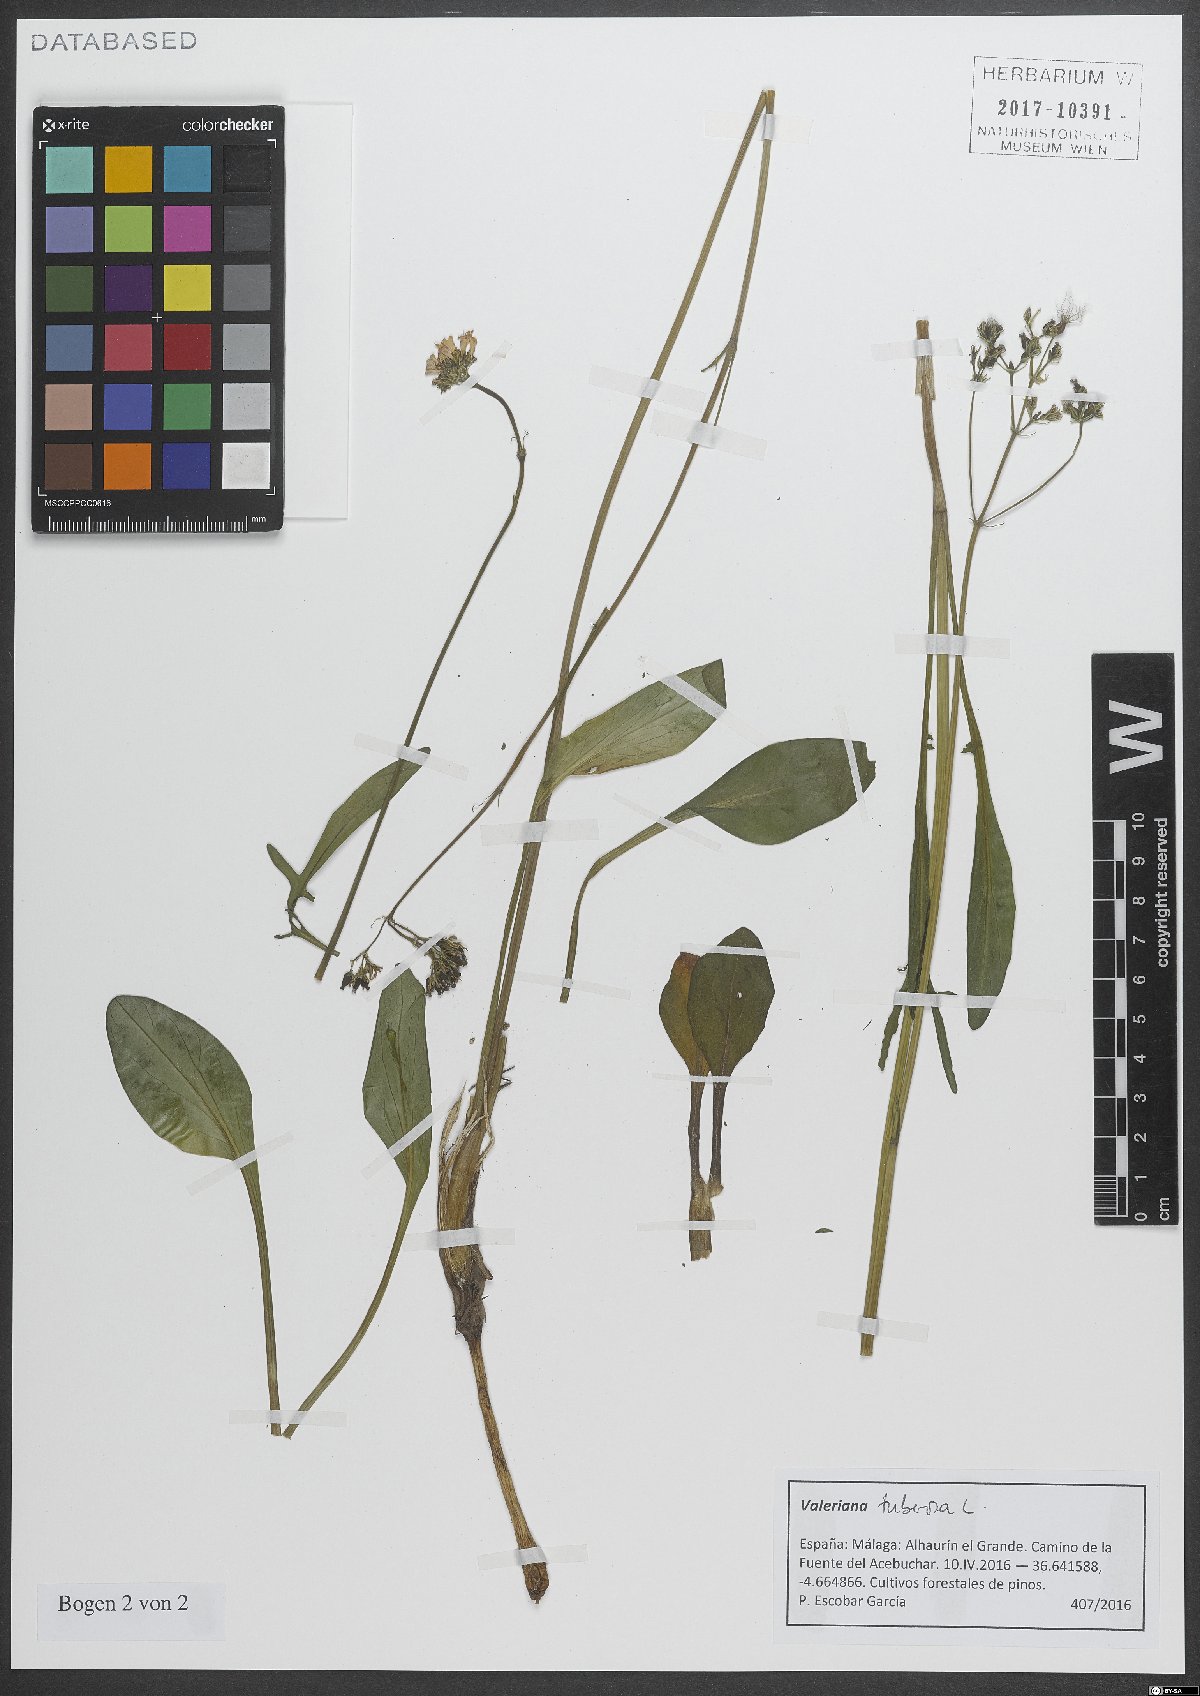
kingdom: Plantae
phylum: Tracheophyta
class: Magnoliopsida
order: Dipsacales
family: Caprifoliaceae
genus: Valeriana
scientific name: Valeriana tuberosa
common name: Tuberous valerian
